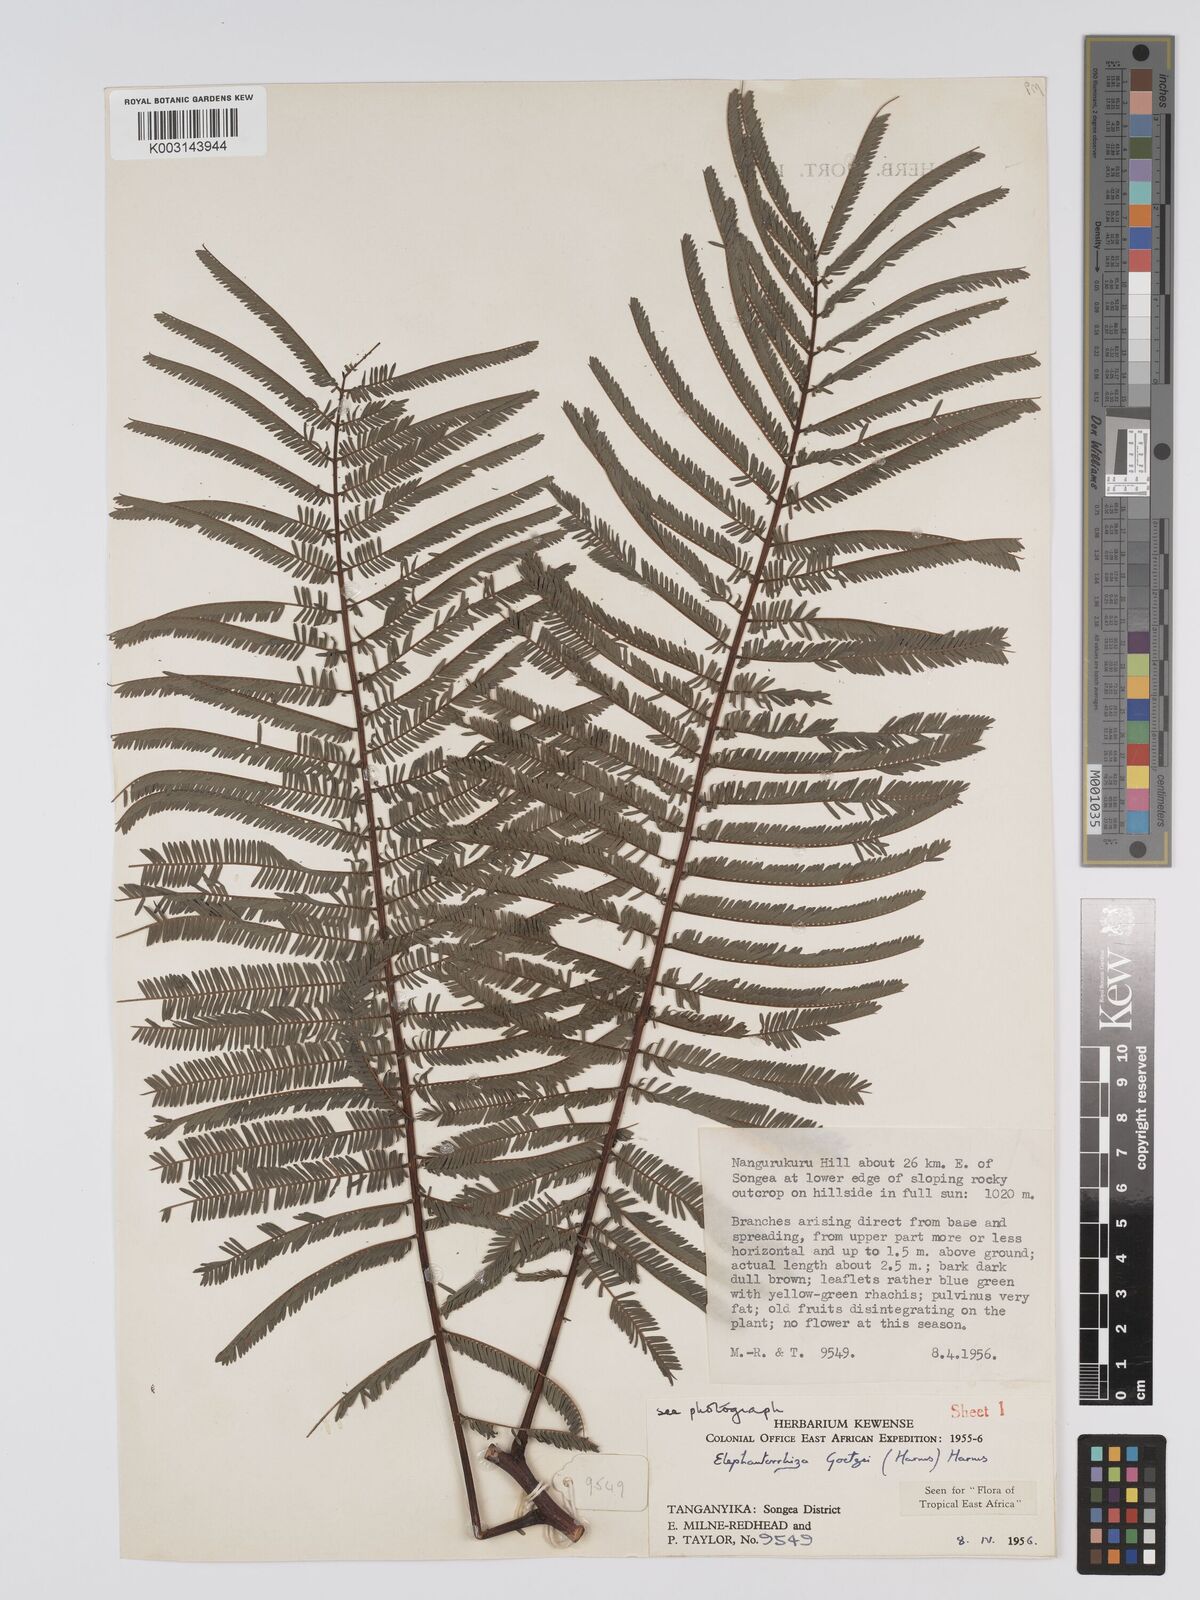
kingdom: Plantae
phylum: Tracheophyta
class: Magnoliopsida
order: Fabales
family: Fabaceae
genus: Elephantorrhiza
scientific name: Elephantorrhiza goetzei
